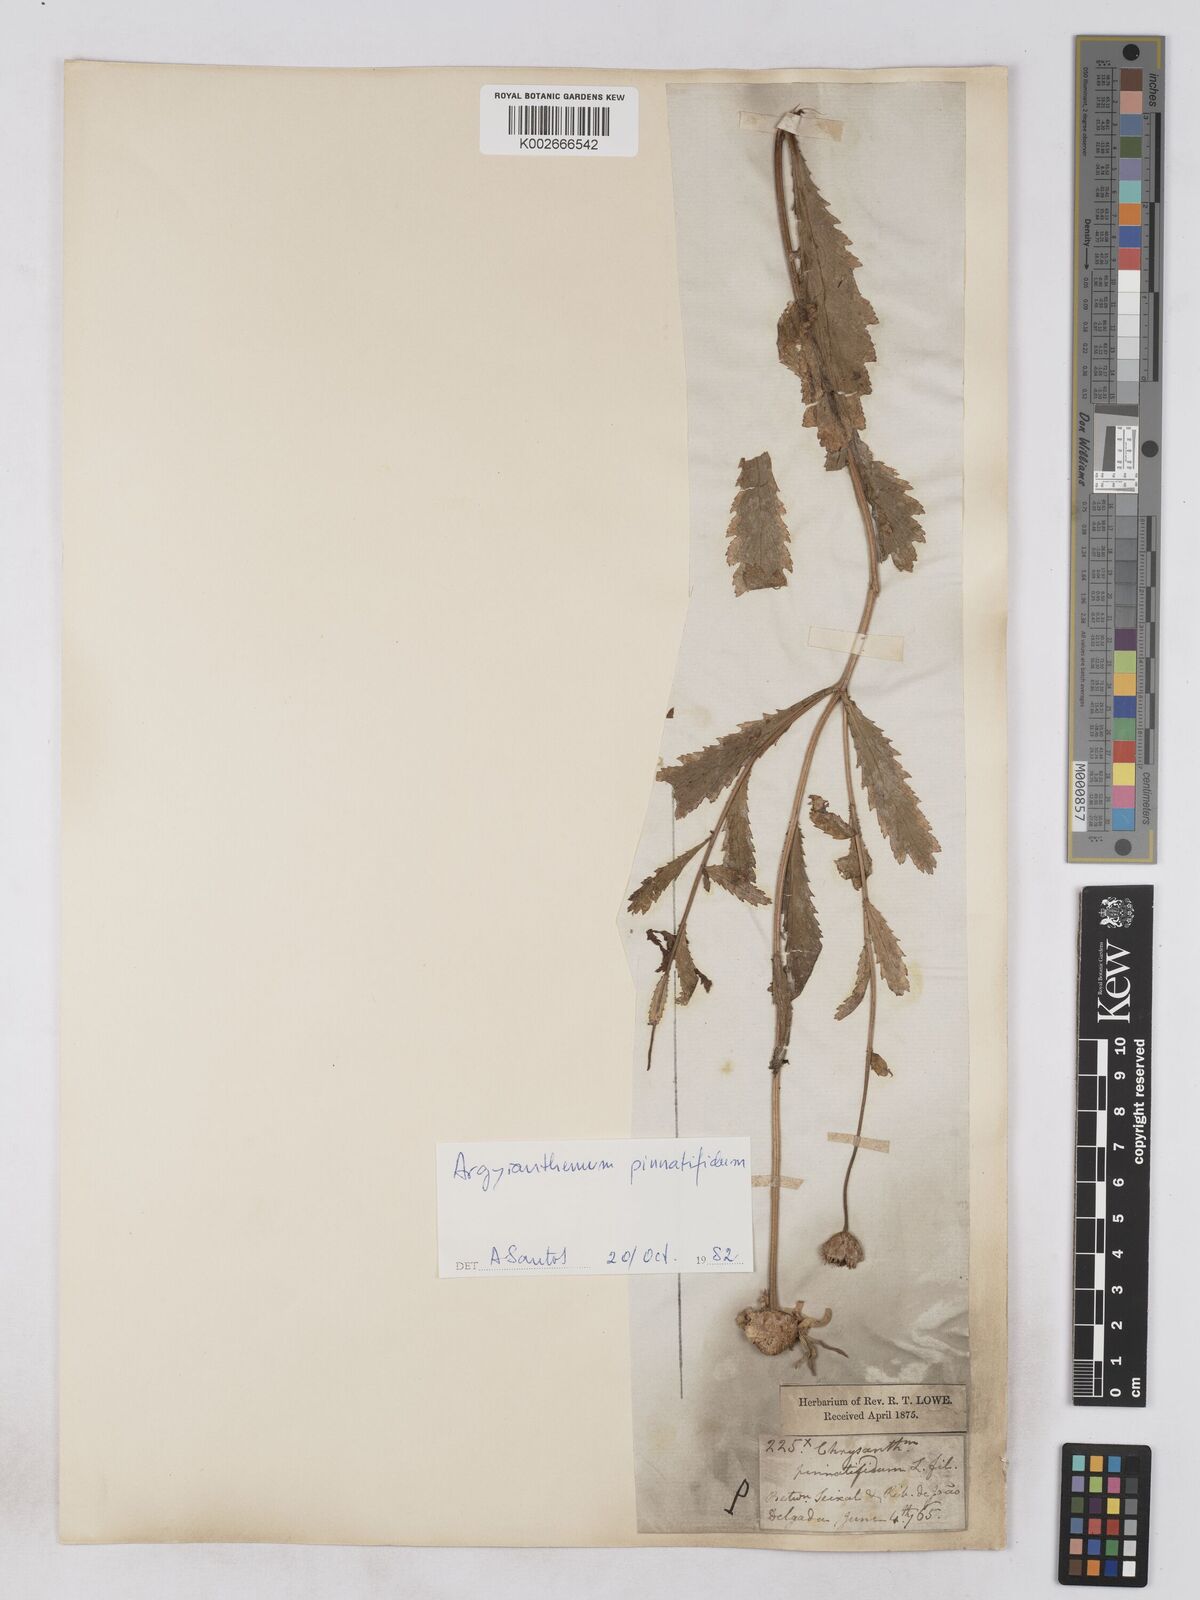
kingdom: Plantae
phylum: Tracheophyta
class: Magnoliopsida
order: Asterales
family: Asteraceae
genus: Argyranthemum
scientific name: Argyranthemum
